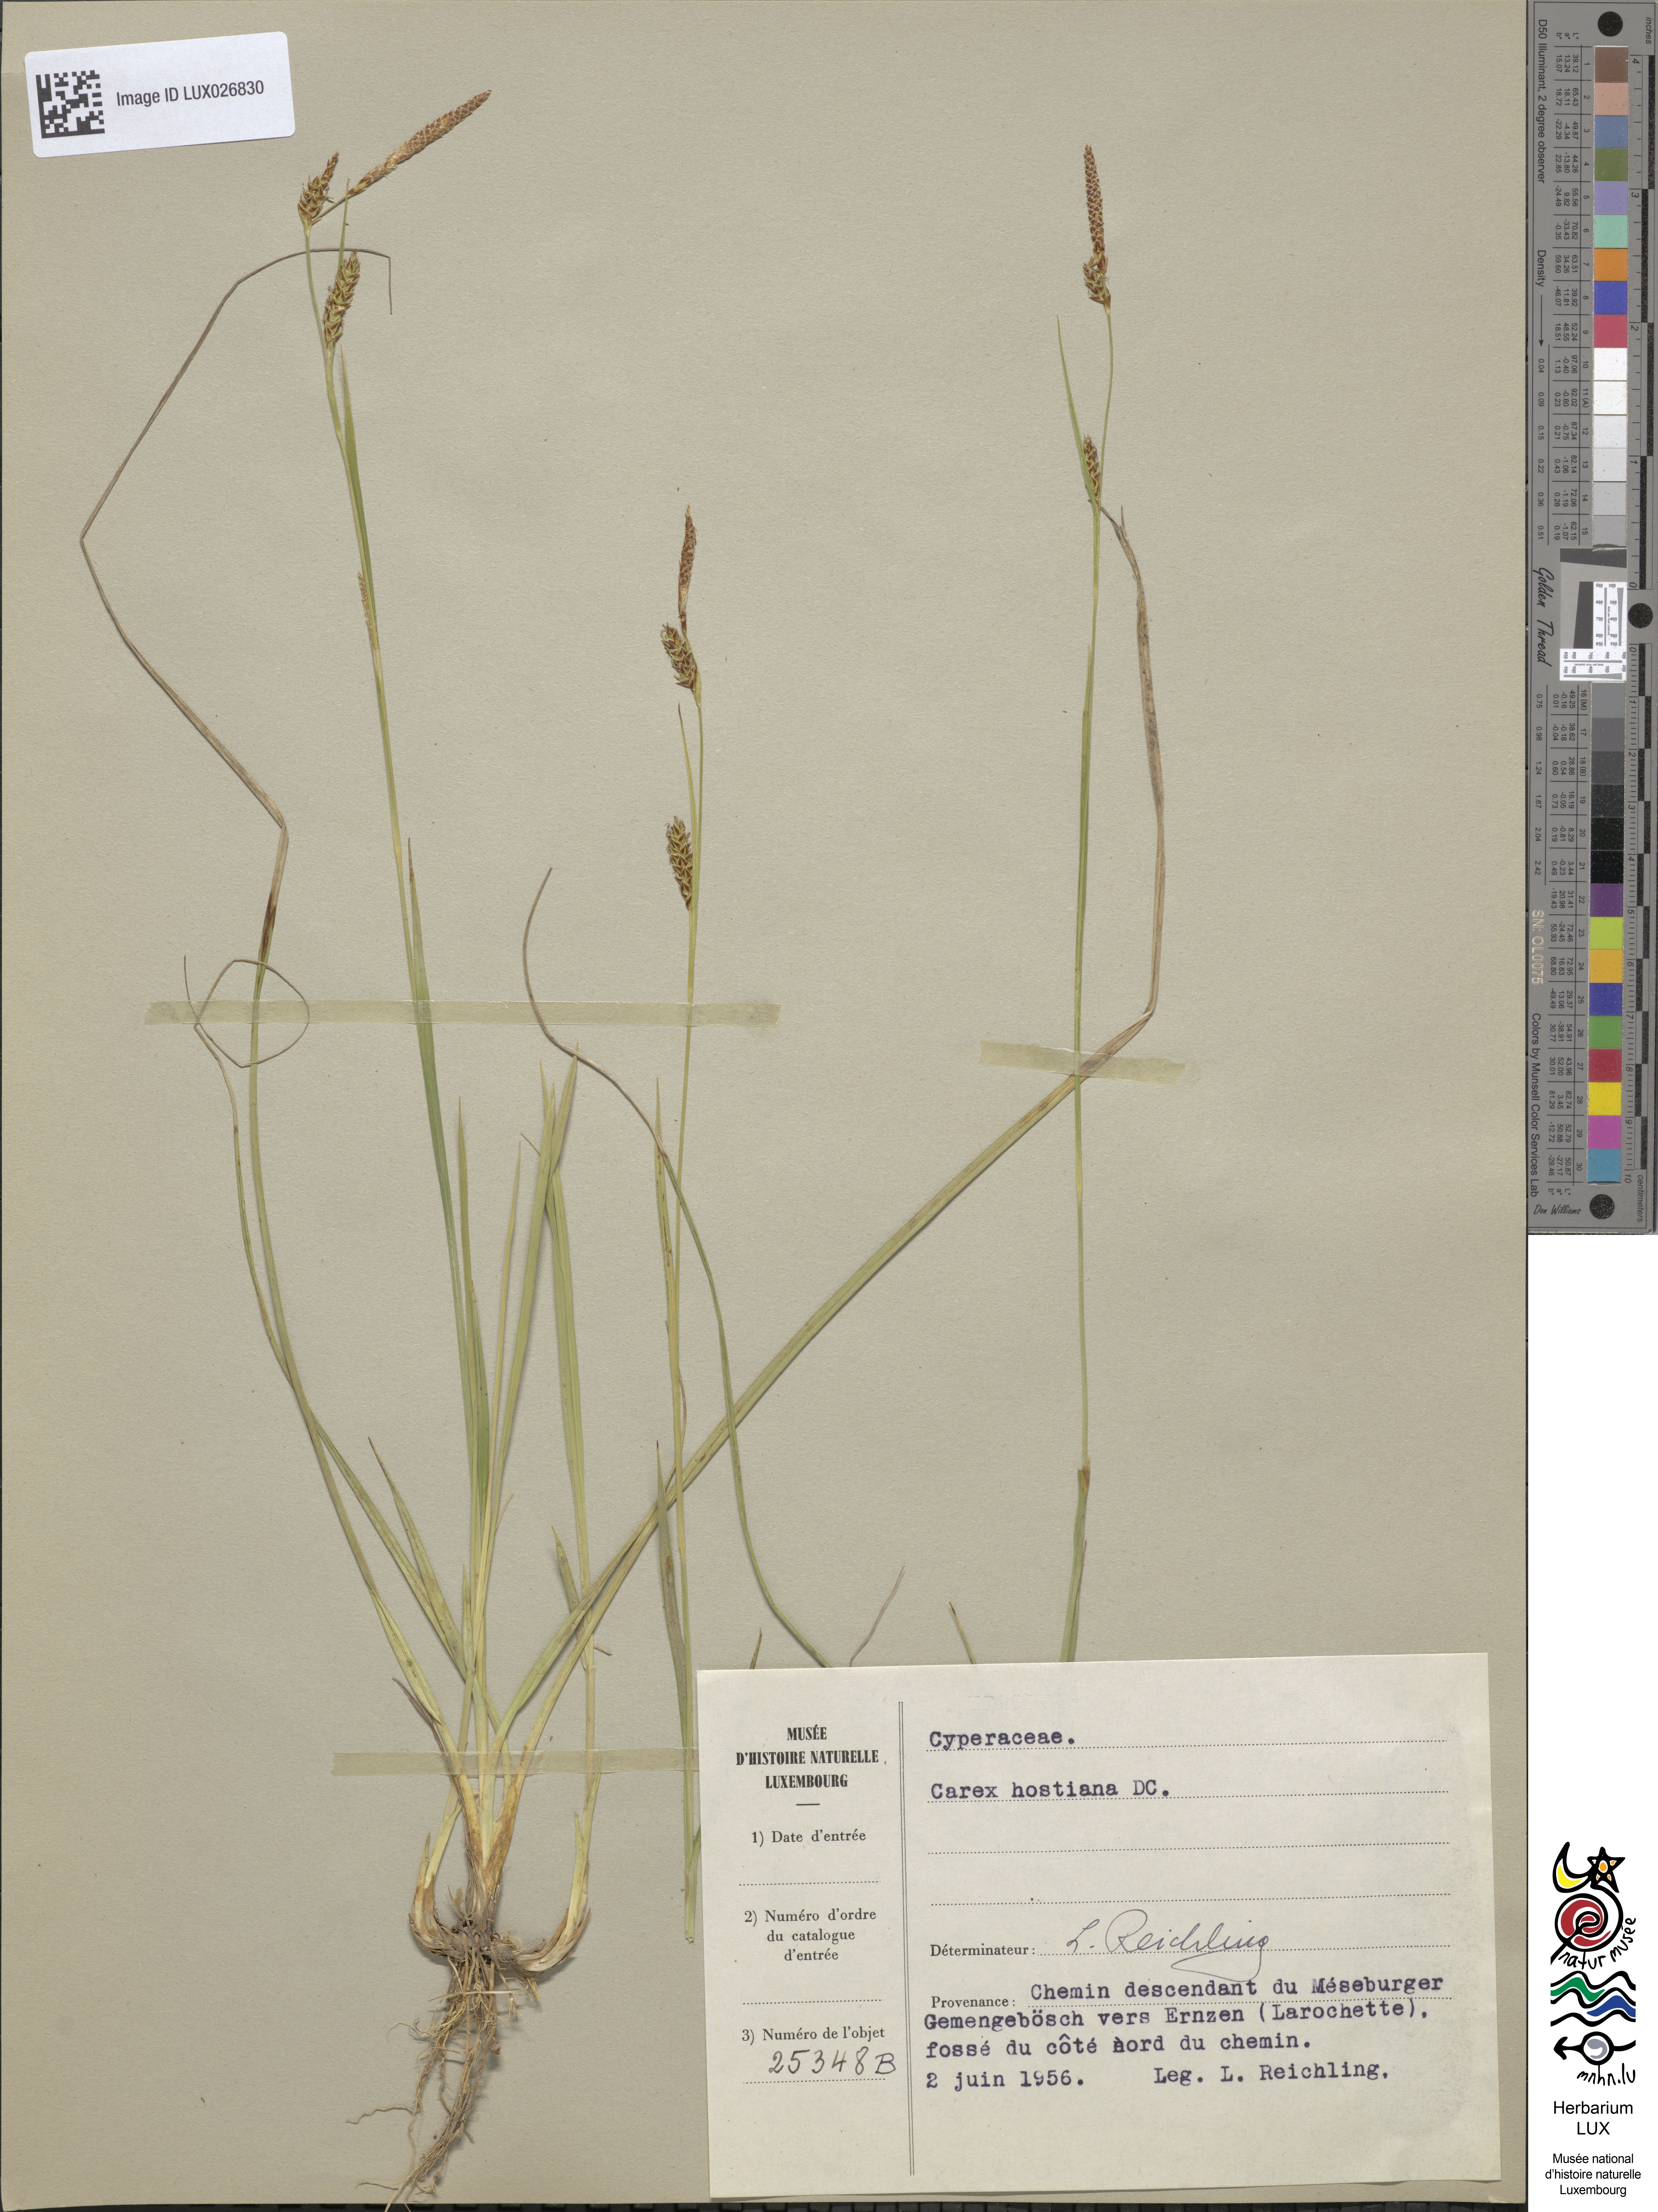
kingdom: Plantae
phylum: Tracheophyta
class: Liliopsida
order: Poales
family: Cyperaceae
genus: Carex
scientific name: Carex leutzii
